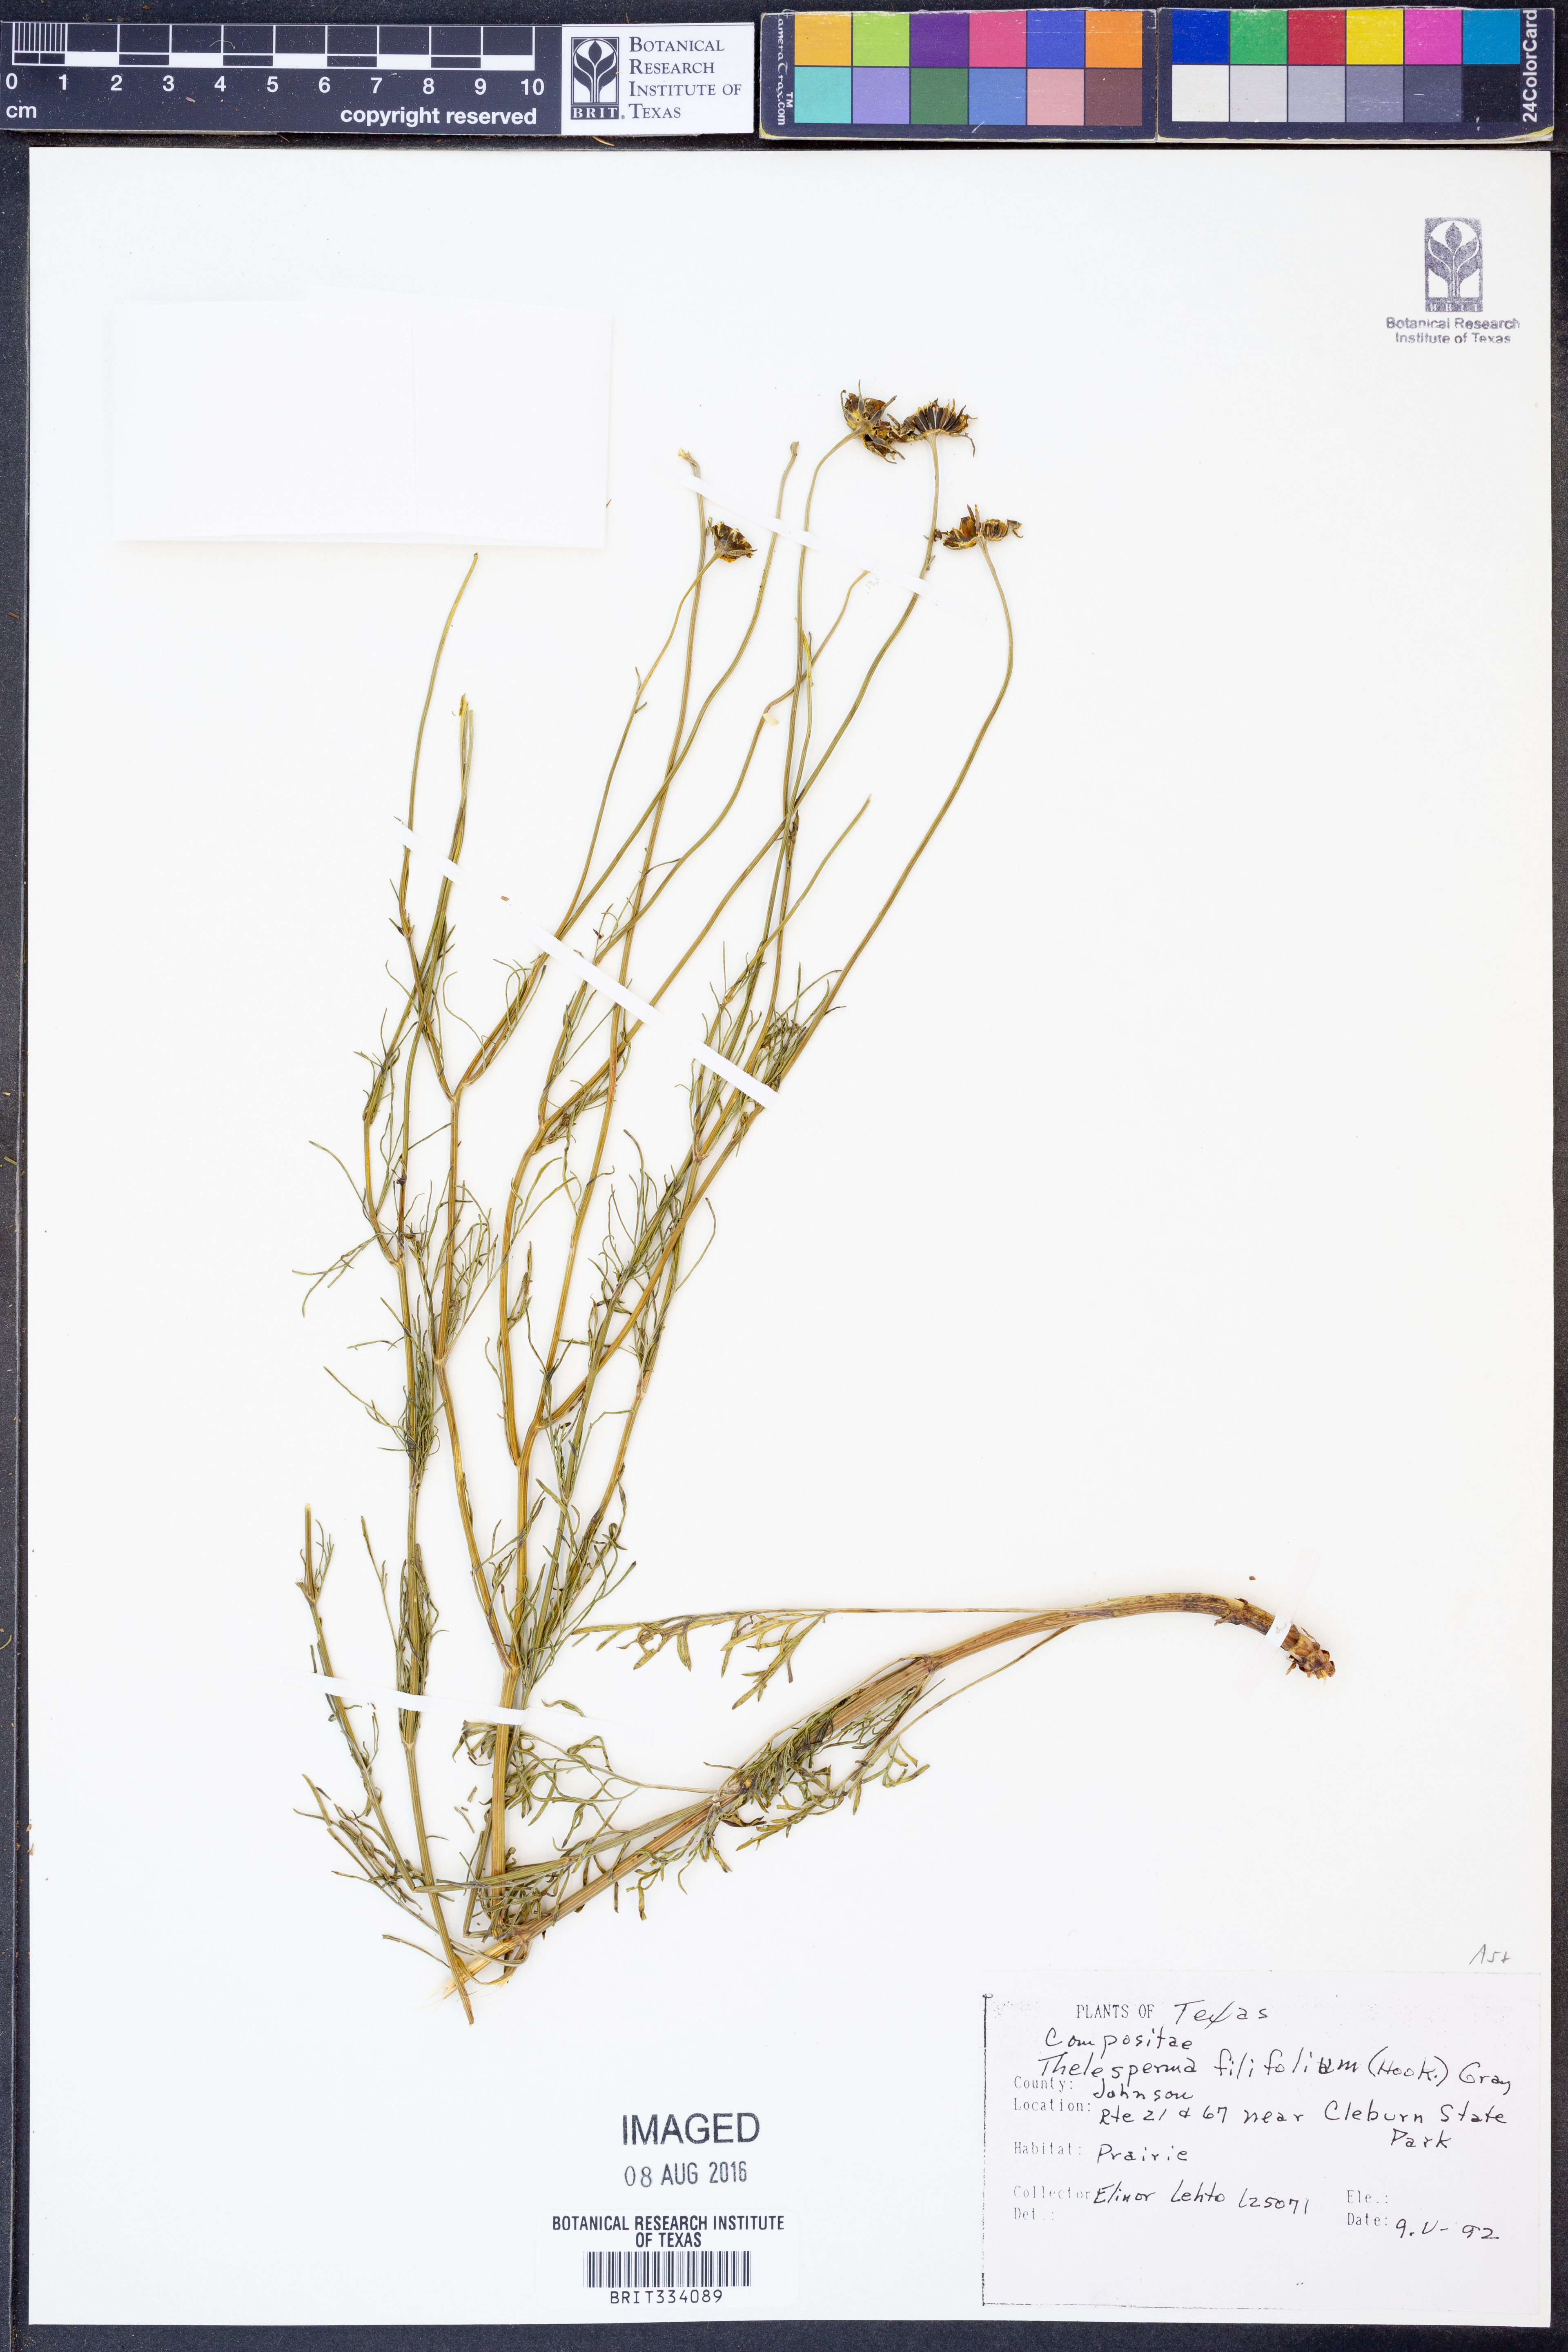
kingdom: Plantae
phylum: Tracheophyta
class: Magnoliopsida
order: Asterales
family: Asteraceae
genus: Thelesperma
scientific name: Thelesperma filifolium
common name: Stiff greenthread
